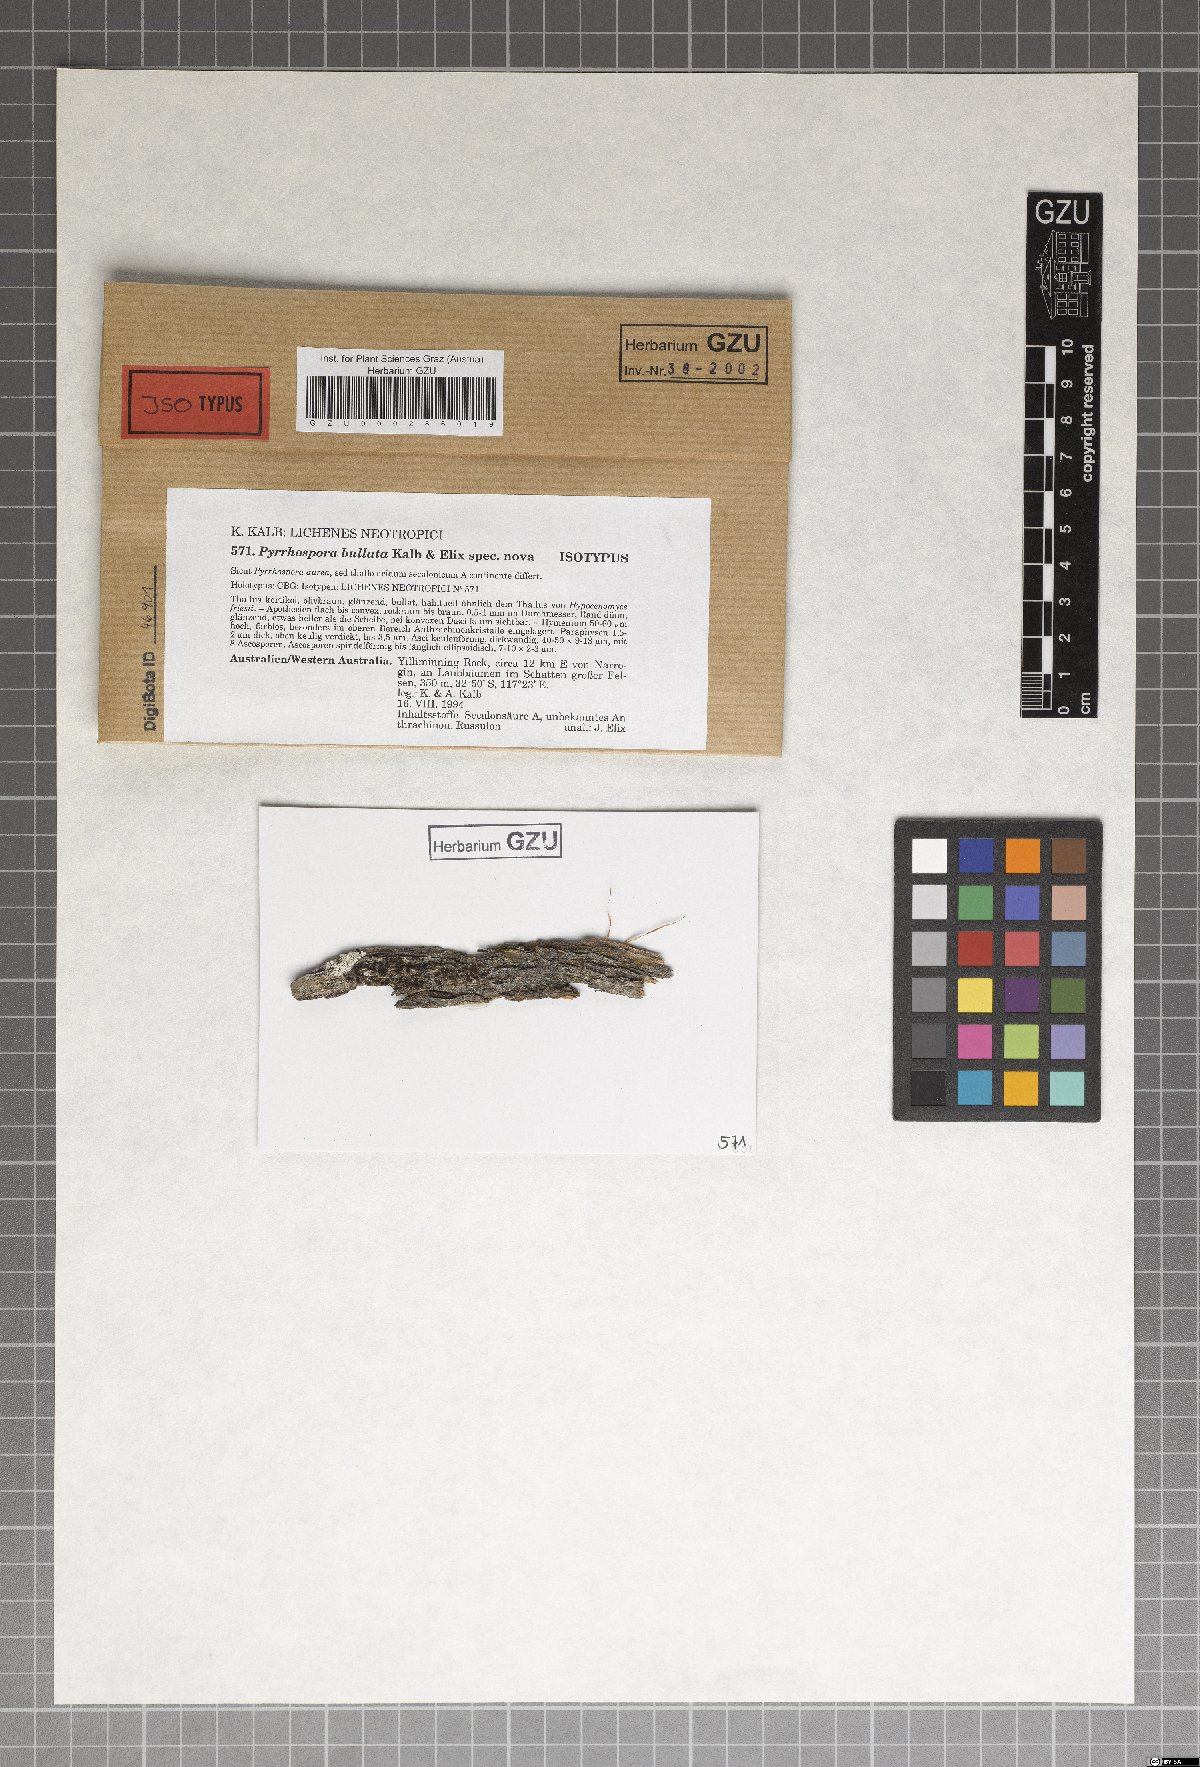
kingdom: Fungi
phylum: Ascomycota
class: Lecanoromycetes
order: Lecanorales
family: Ramboldiaceae
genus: Ramboldia
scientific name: Ramboldia bullata
